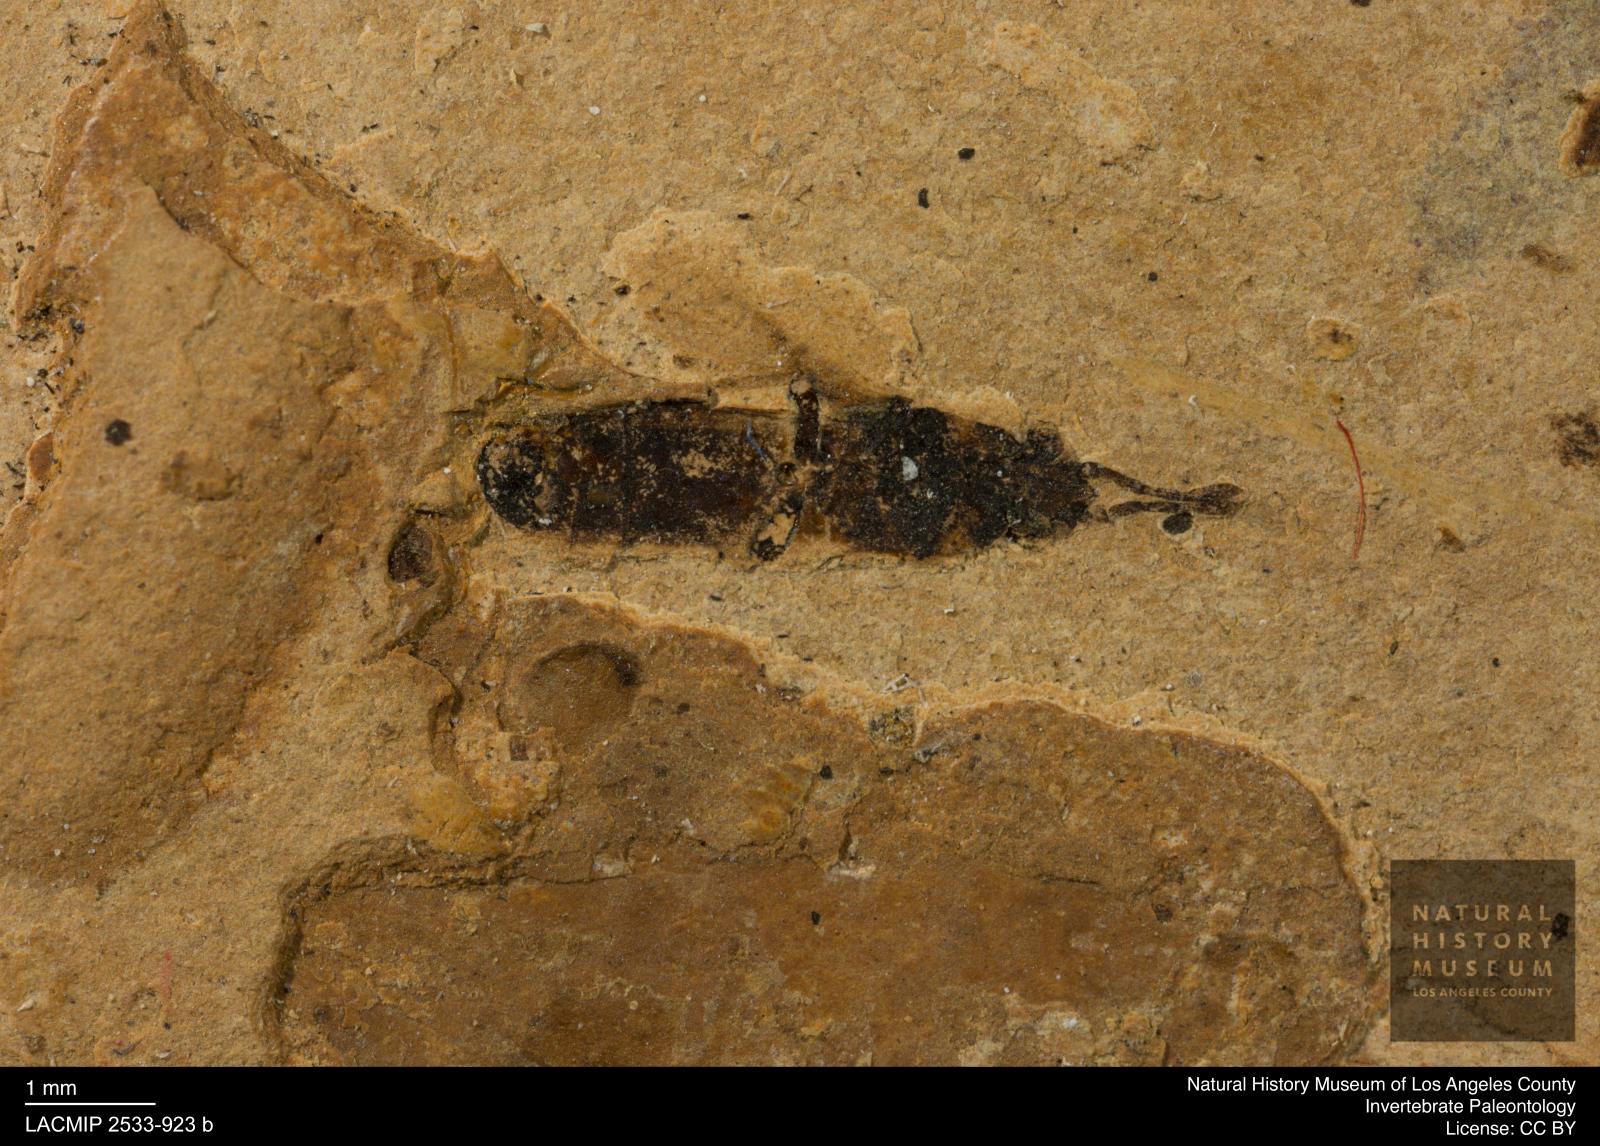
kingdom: Animalia
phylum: Arthropoda
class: Insecta
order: Hemiptera
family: Blissidae
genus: Ischnodemus
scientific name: Ischnodemus rottensis
